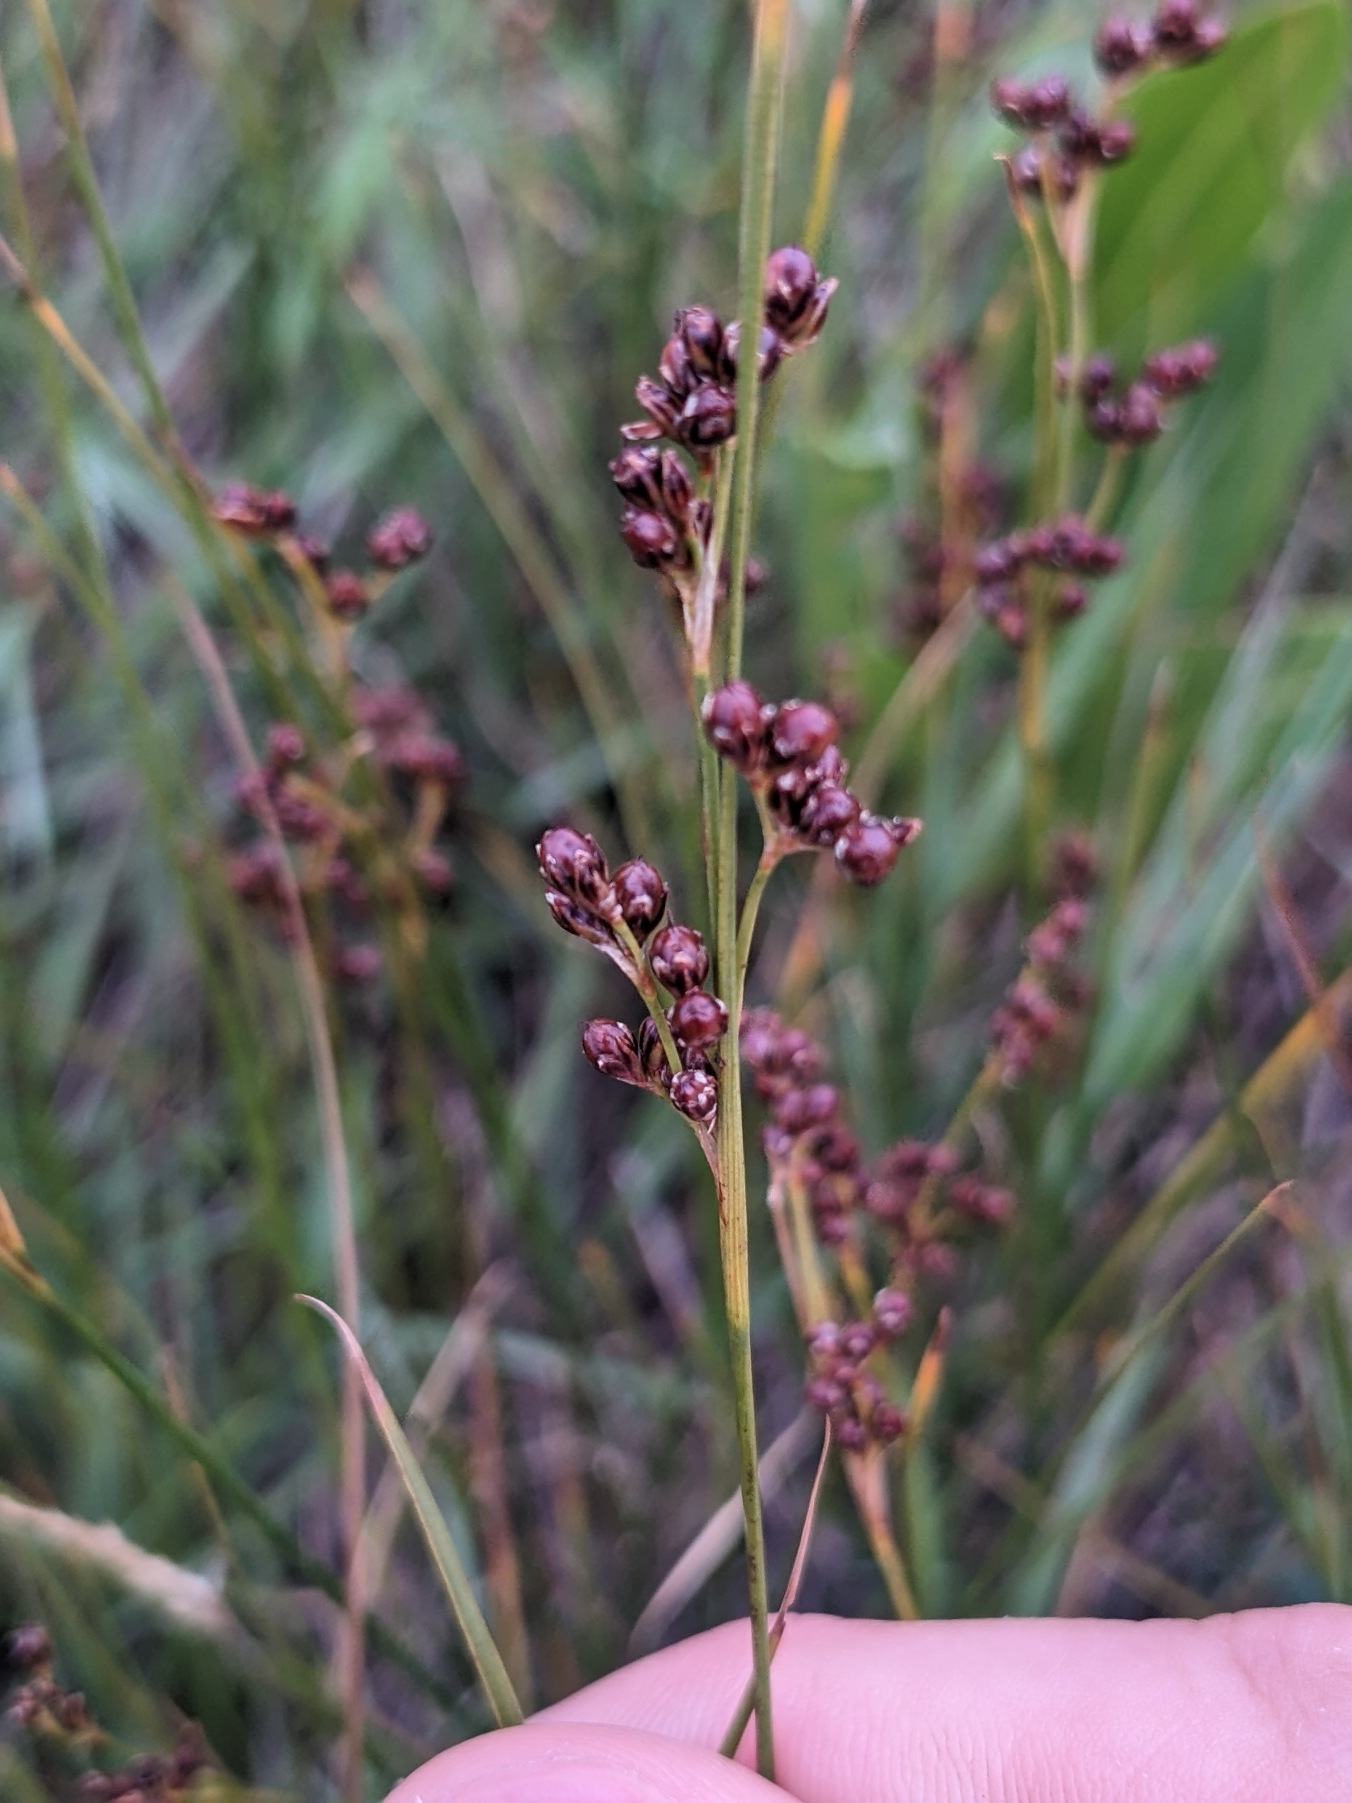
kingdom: Plantae
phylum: Tracheophyta
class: Liliopsida
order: Poales
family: Juncaceae
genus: Juncus
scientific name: Juncus compressus
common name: Fladstrået siv
